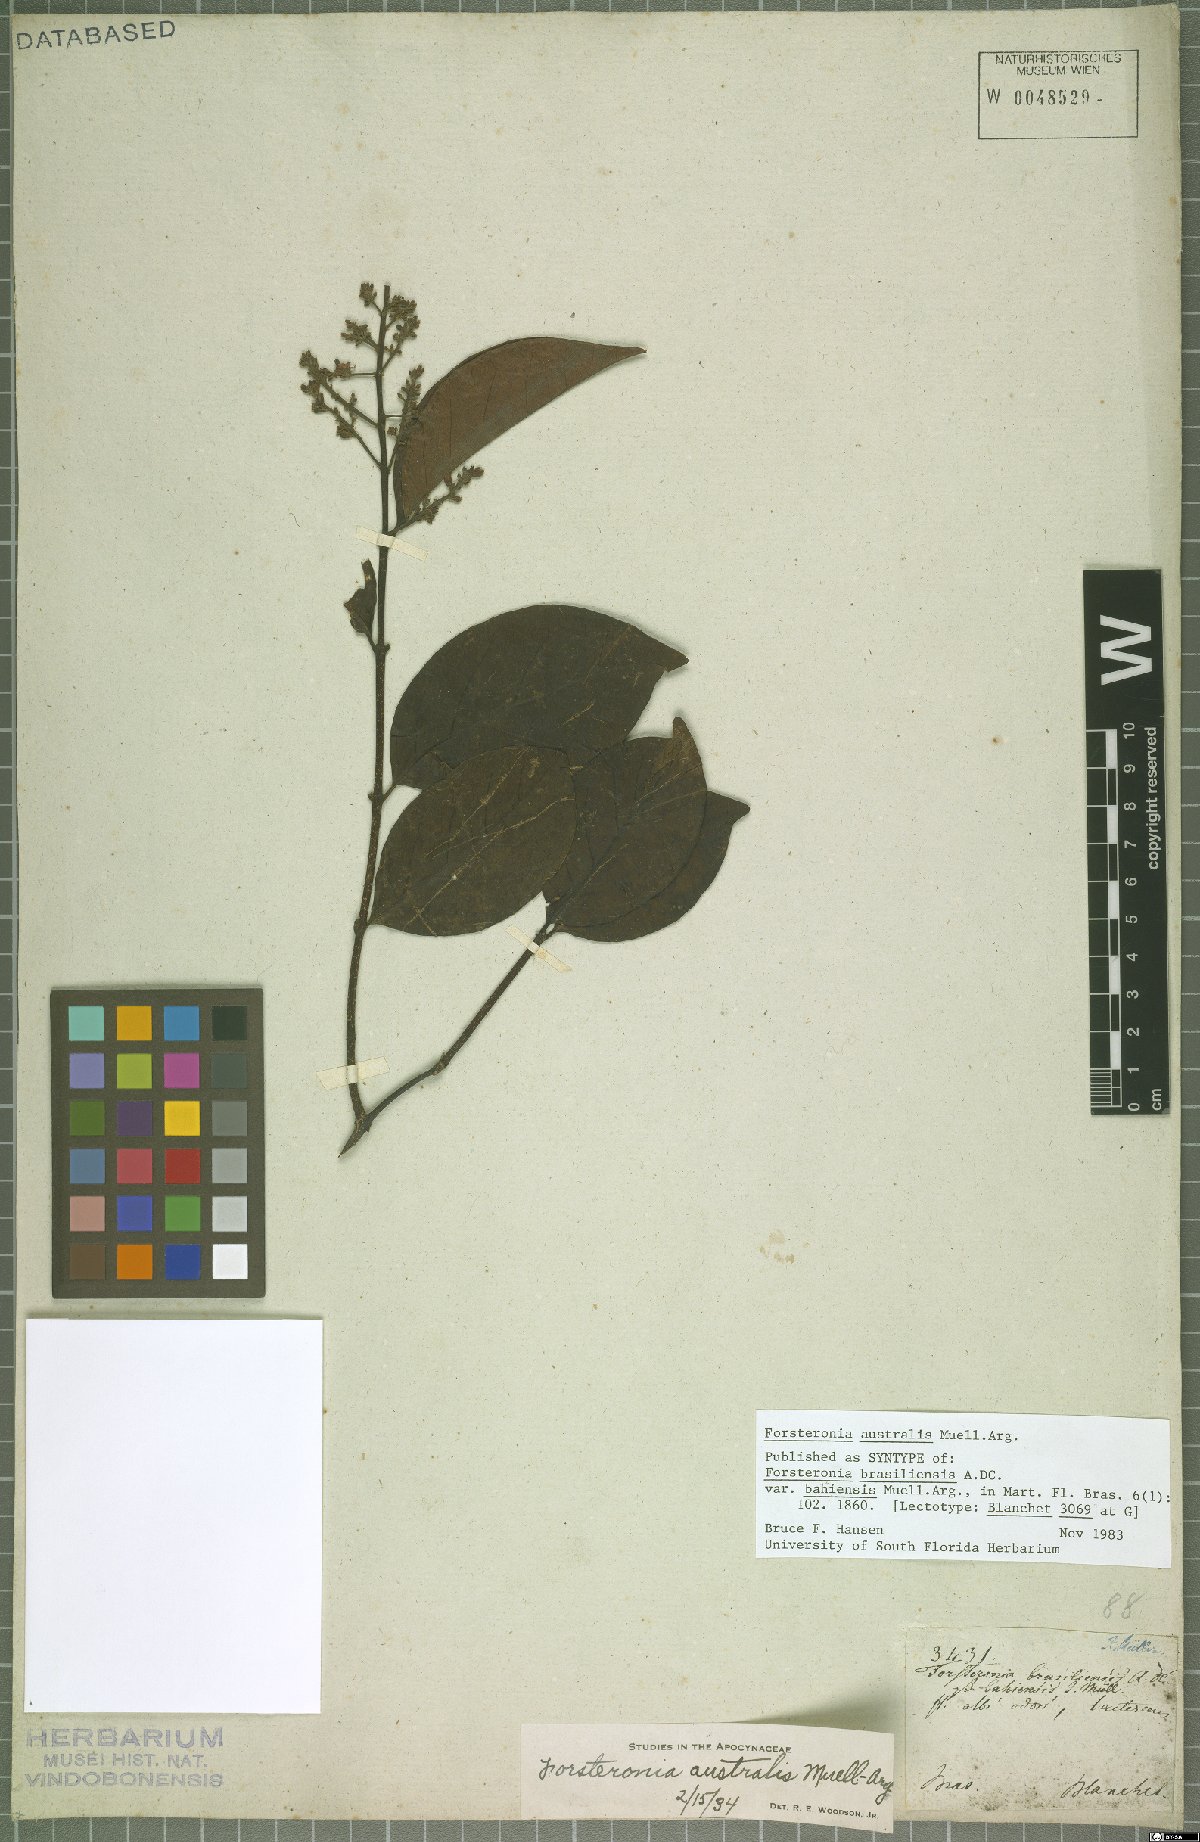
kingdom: Plantae
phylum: Tracheophyta
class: Magnoliopsida
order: Gentianales
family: Apocynaceae
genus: Forsteronia
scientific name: Forsteronia australis
